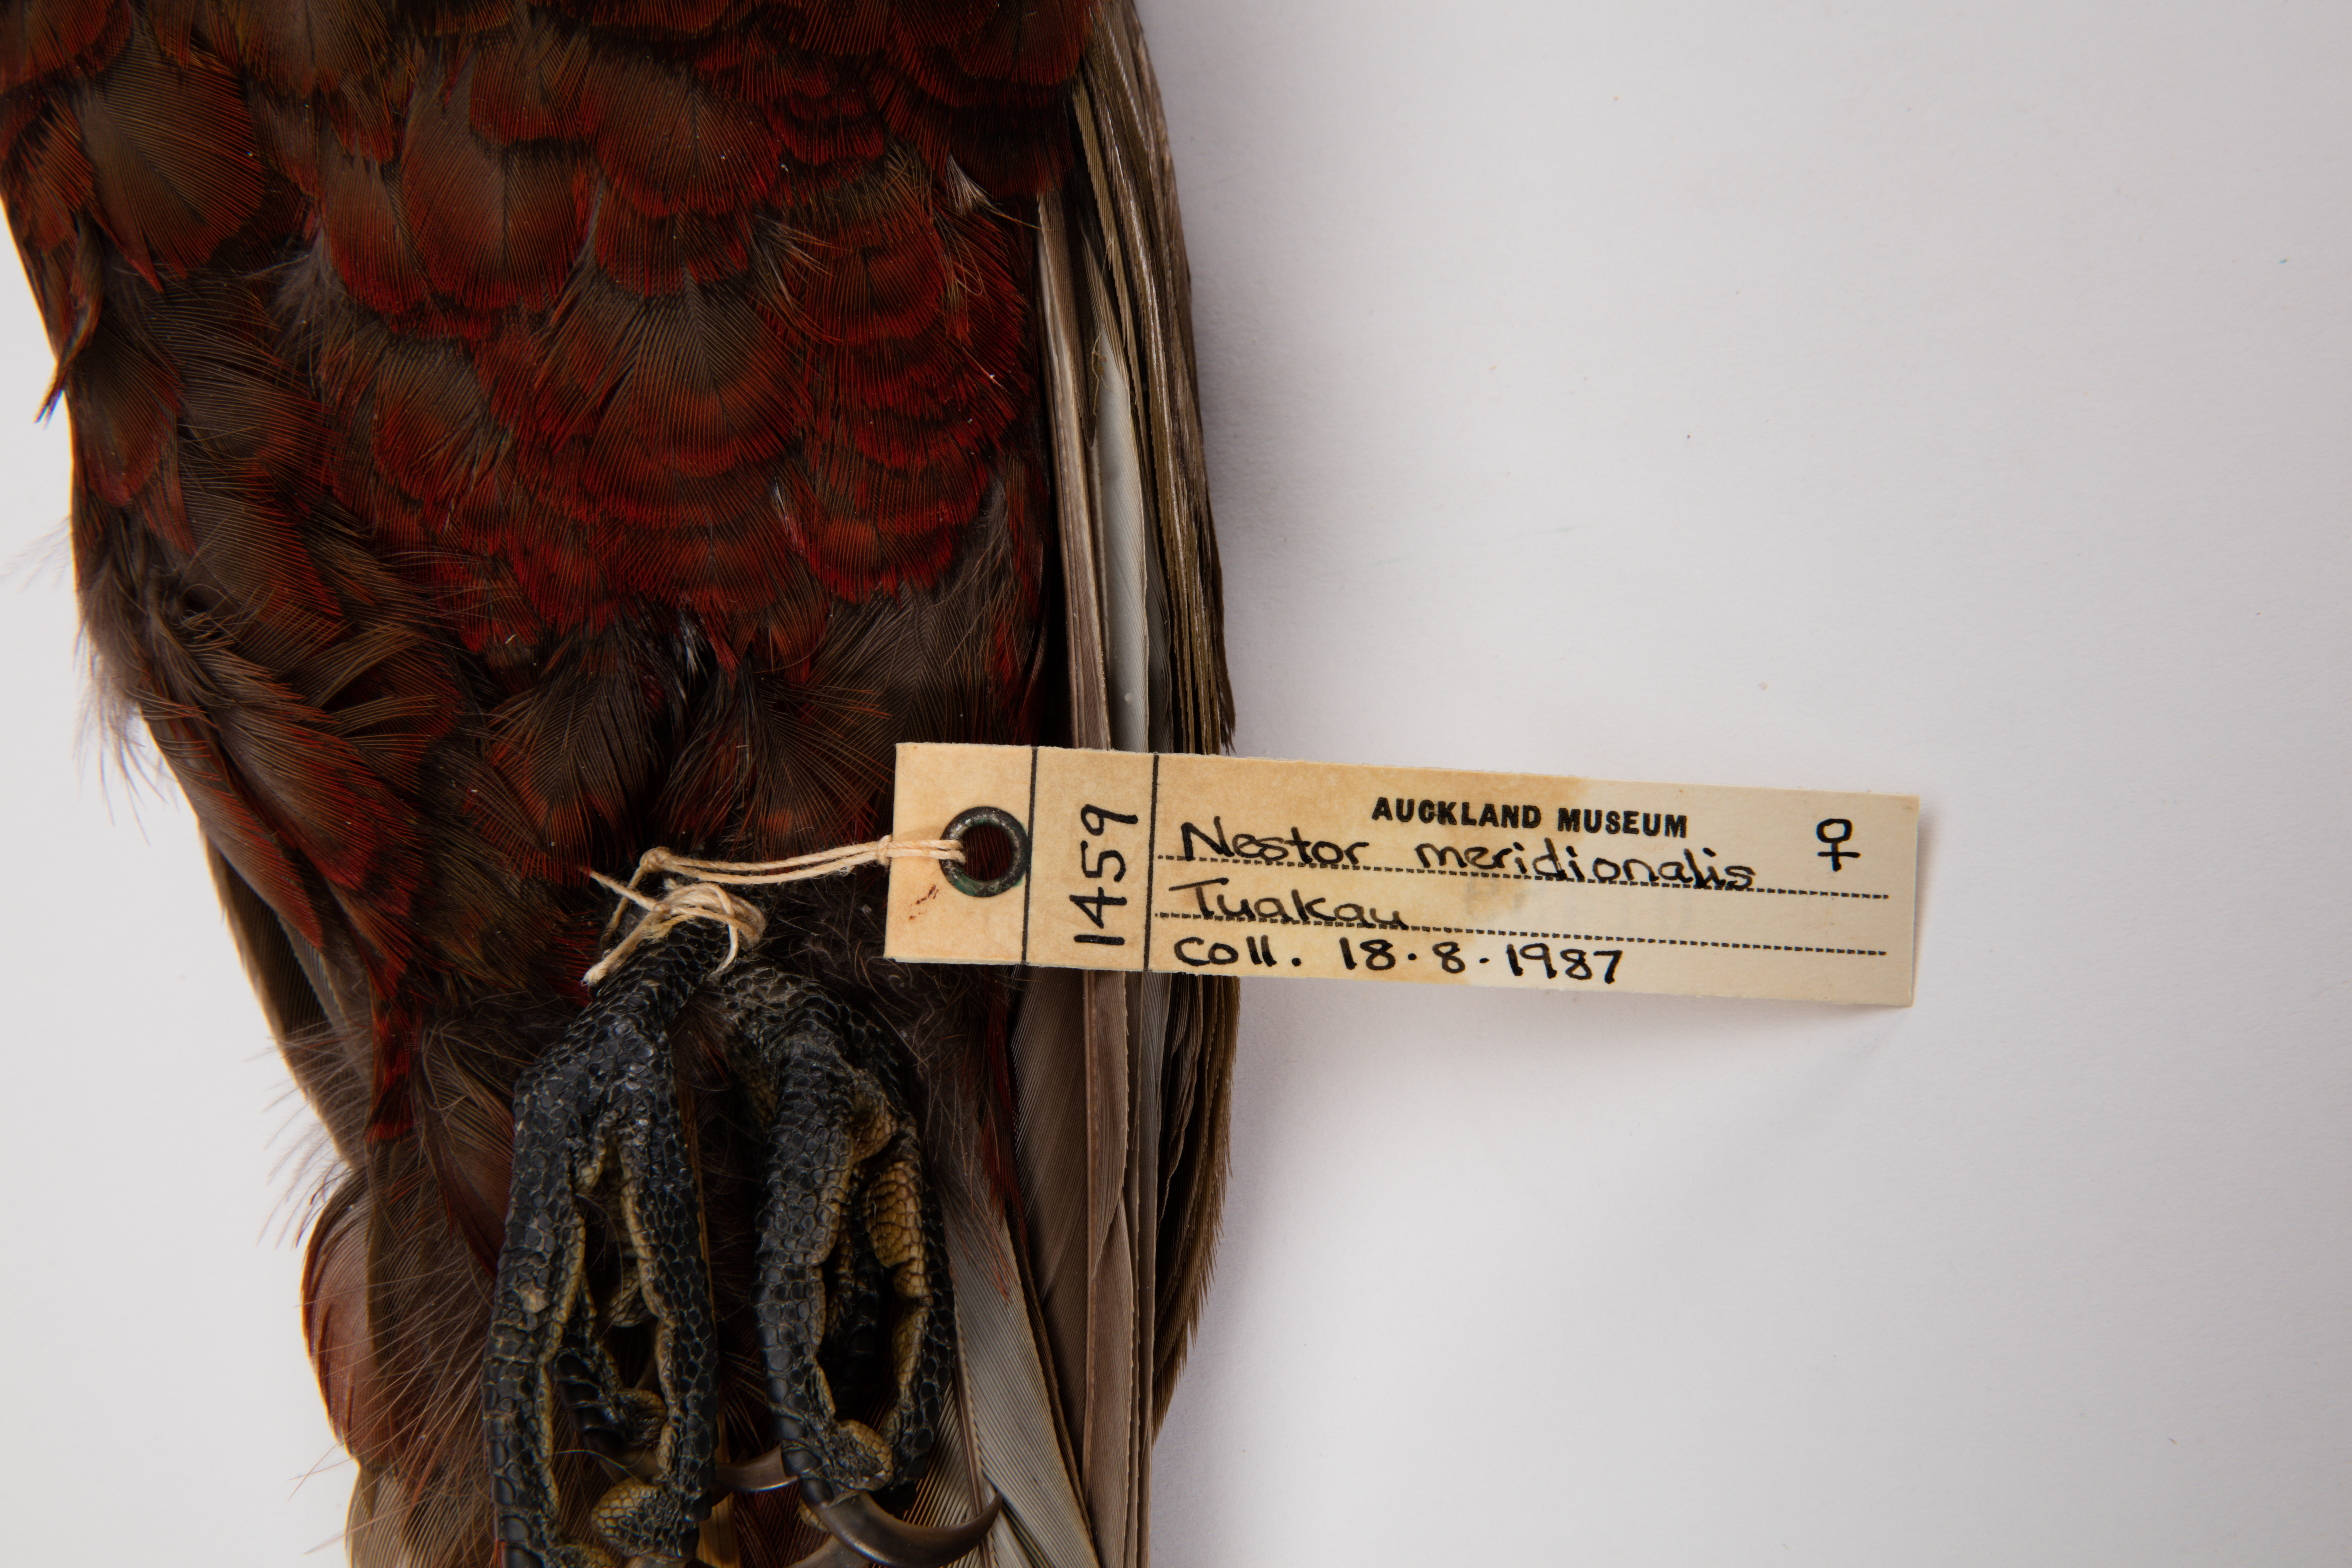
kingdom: Animalia
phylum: Chordata
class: Aves
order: Psittaciformes
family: Psittacidae
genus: Nestor
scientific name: Nestor meridionalis
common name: New zealand kaka
